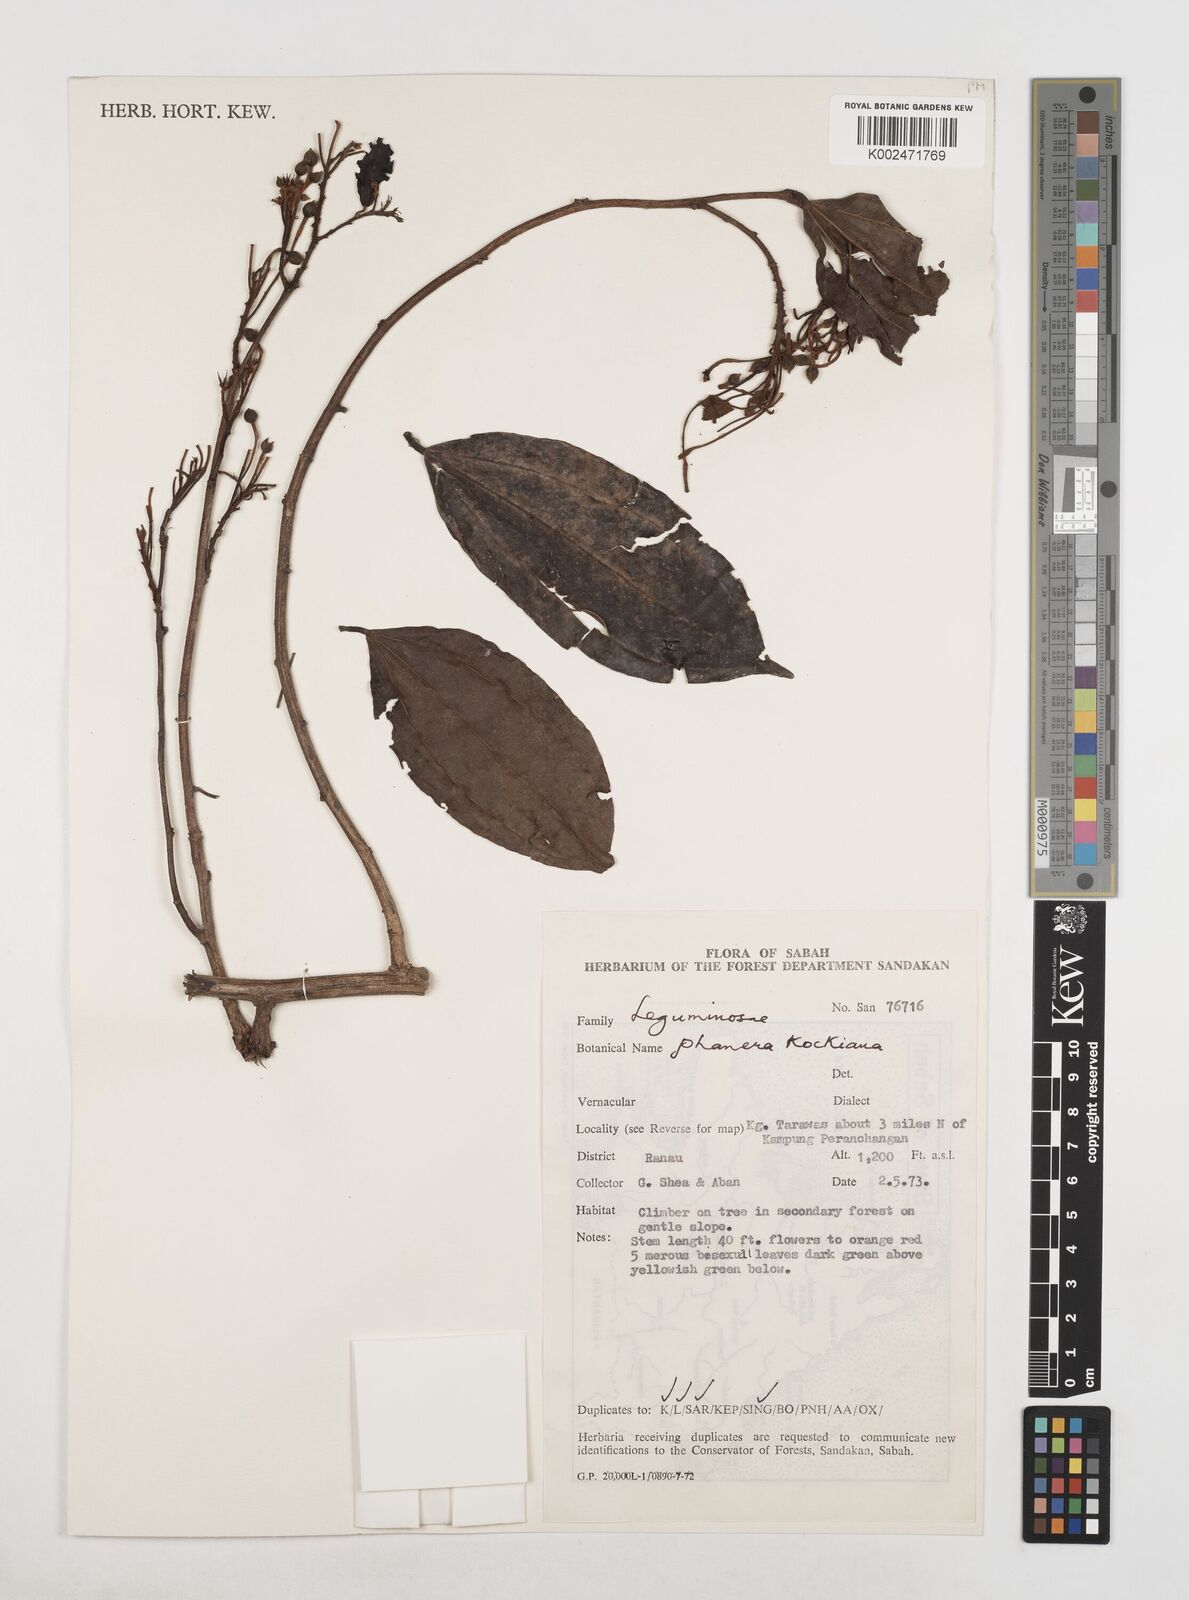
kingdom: Plantae
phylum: Tracheophyta
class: Magnoliopsida
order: Fabales
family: Fabaceae
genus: Phanera
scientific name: Phanera kockiana
